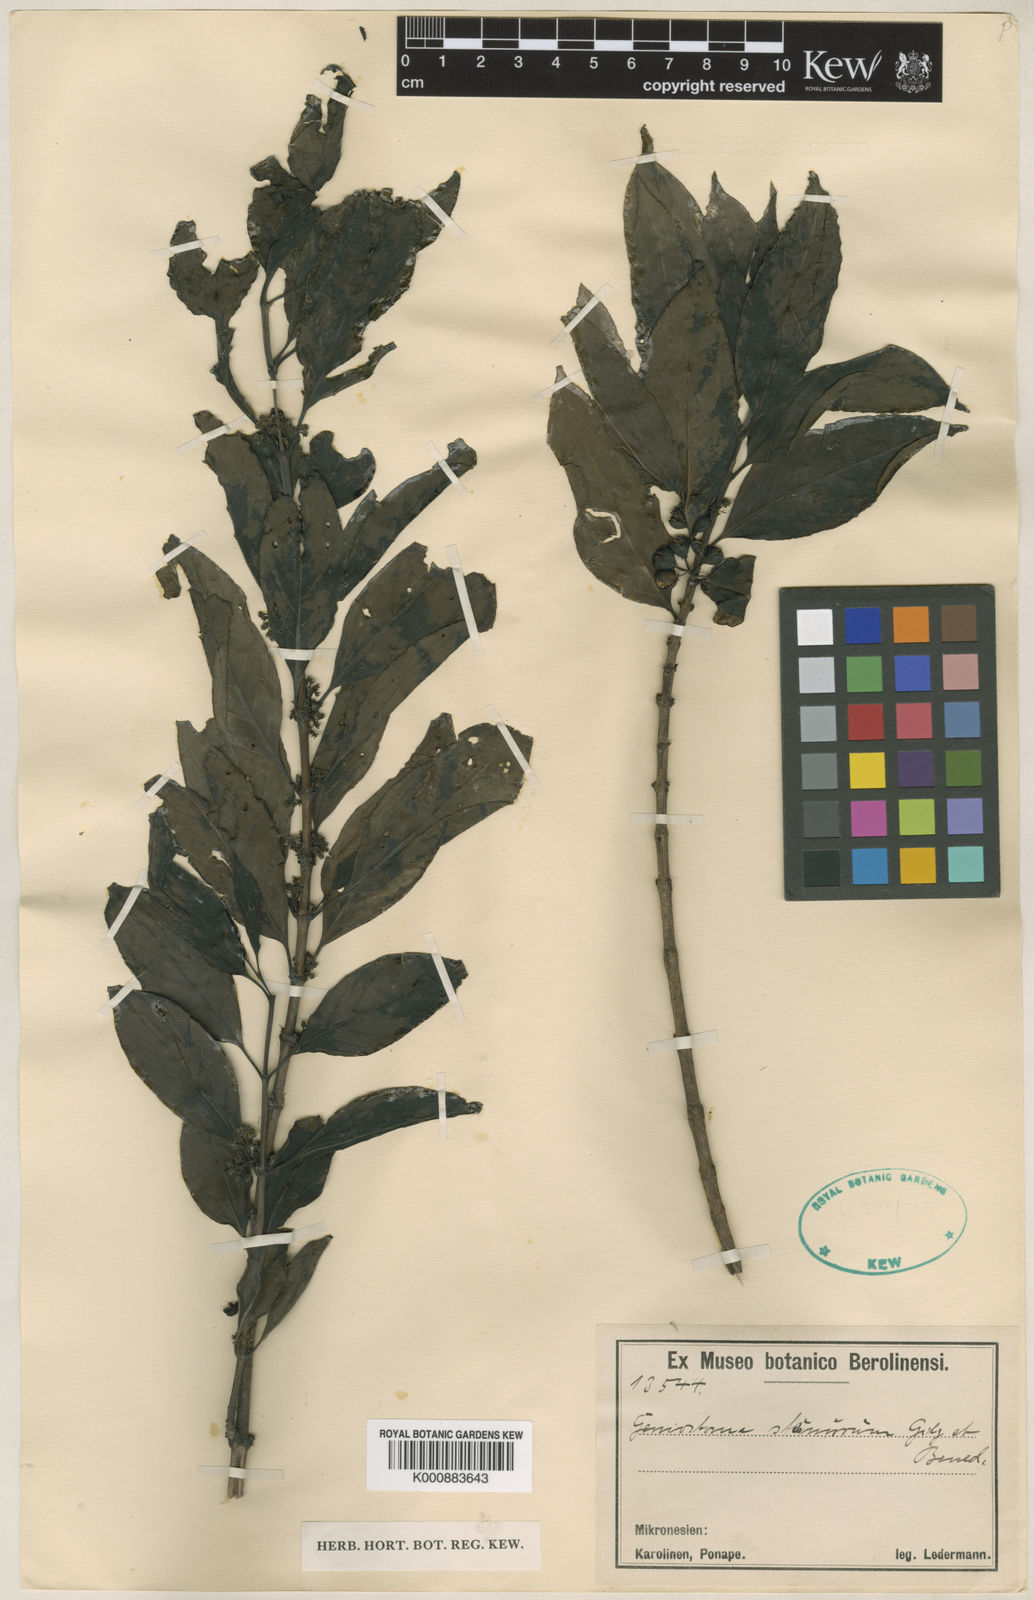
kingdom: Plantae
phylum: Tracheophyta
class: Magnoliopsida
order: Gentianales
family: Loganiaceae
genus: Geniostoma
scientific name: Geniostoma rupestre
